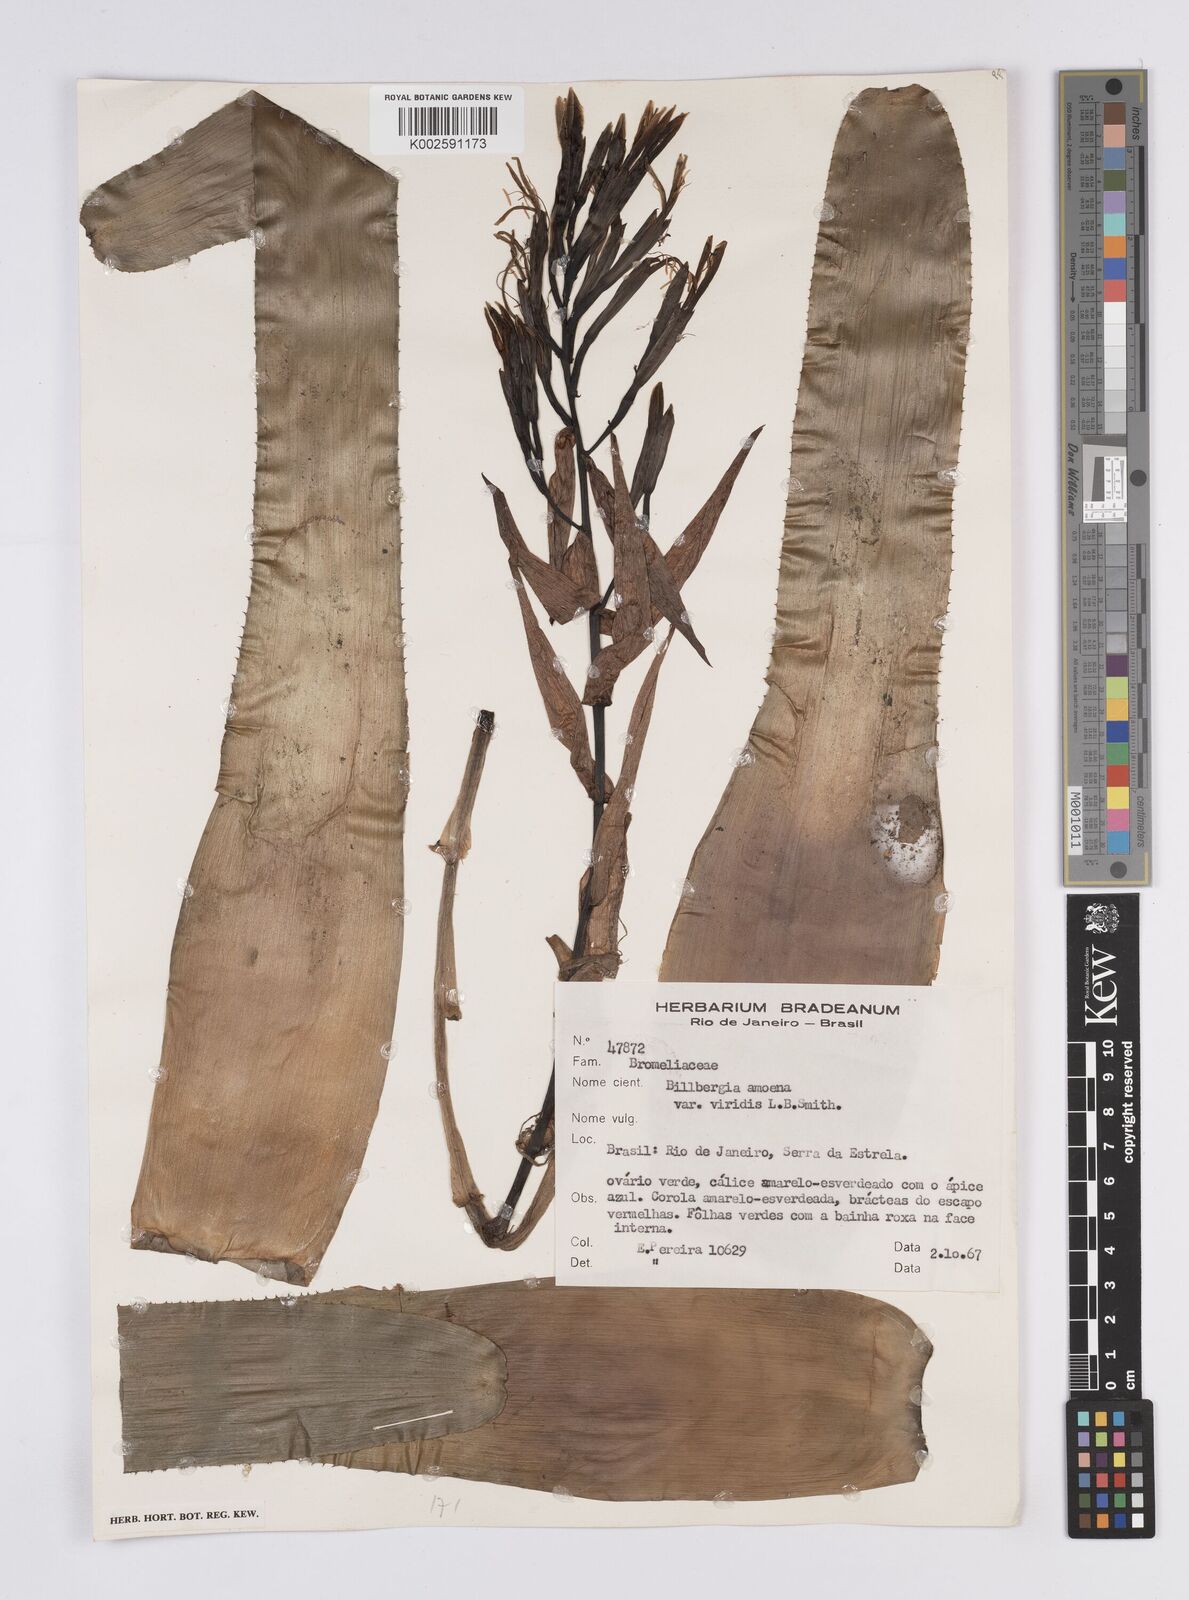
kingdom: Plantae
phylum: Tracheophyta
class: Liliopsida
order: Poales
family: Bromeliaceae
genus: Billbergia
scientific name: Billbergia amoena
